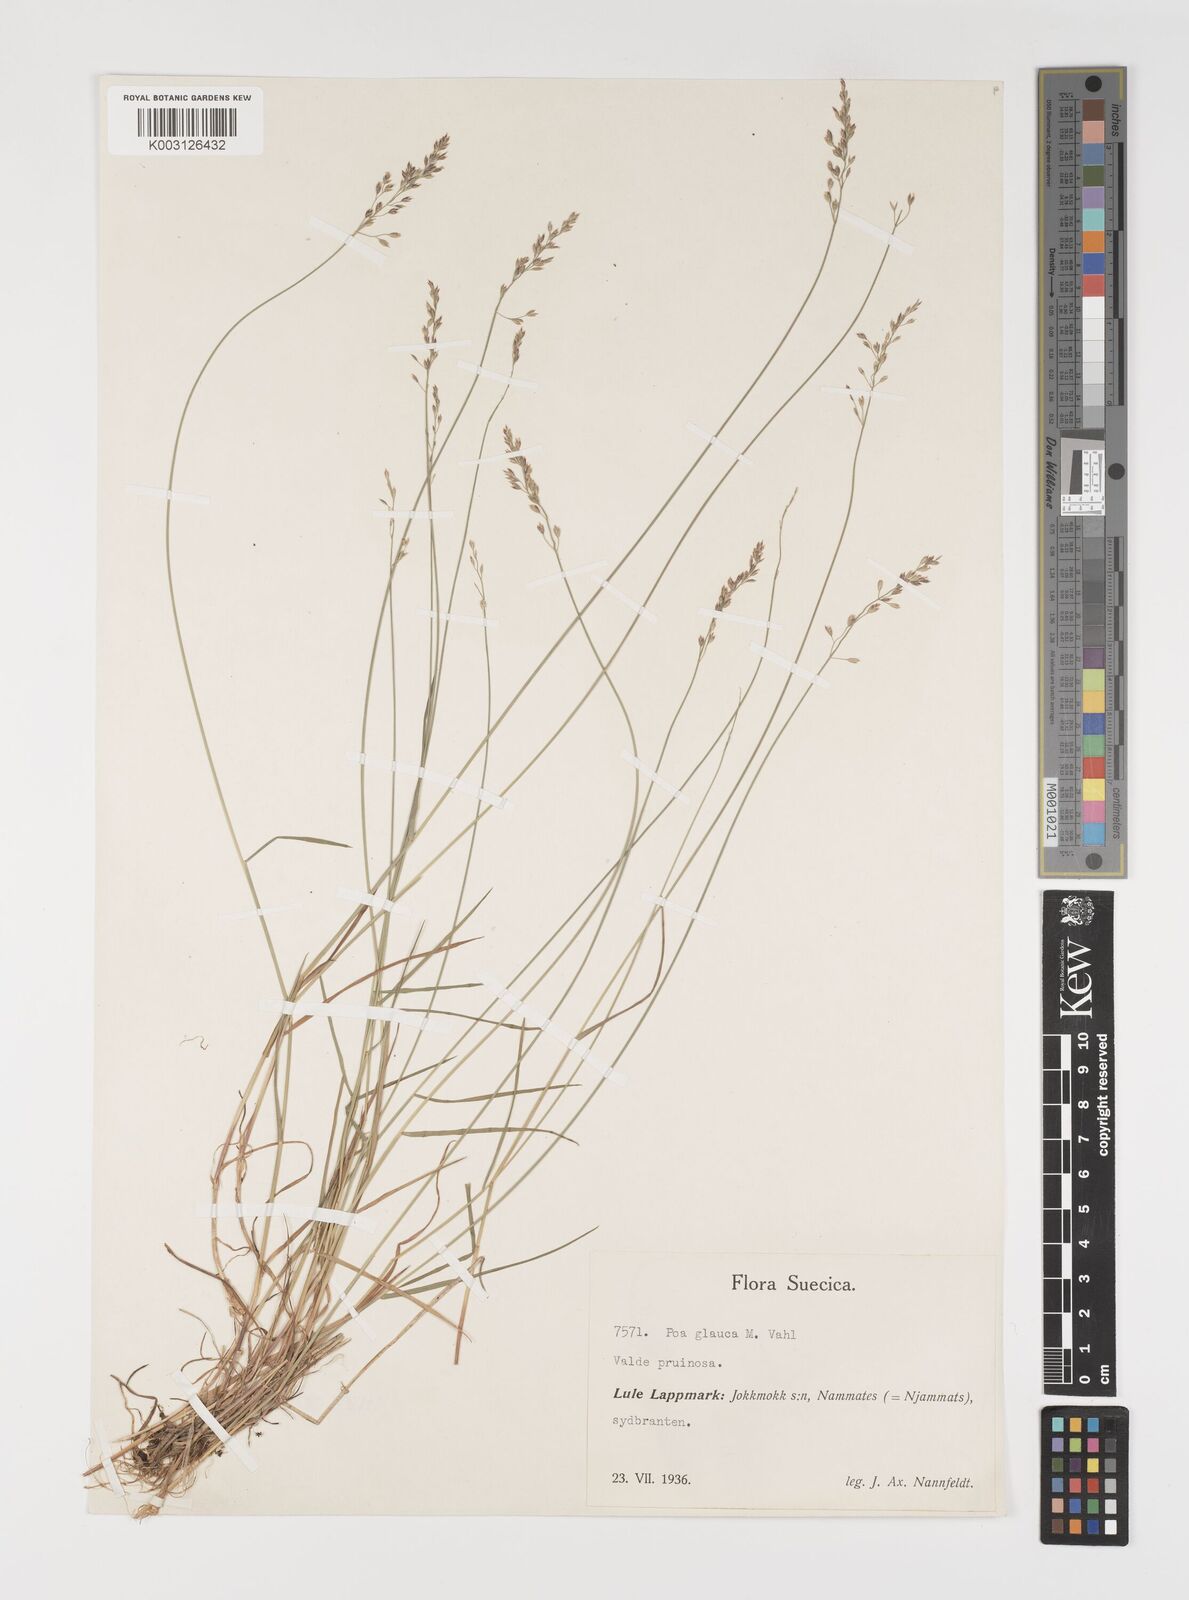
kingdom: Plantae
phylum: Tracheophyta
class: Liliopsida
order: Poales
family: Poaceae
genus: Poa
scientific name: Poa nemoralis
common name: Wood bluegrass
